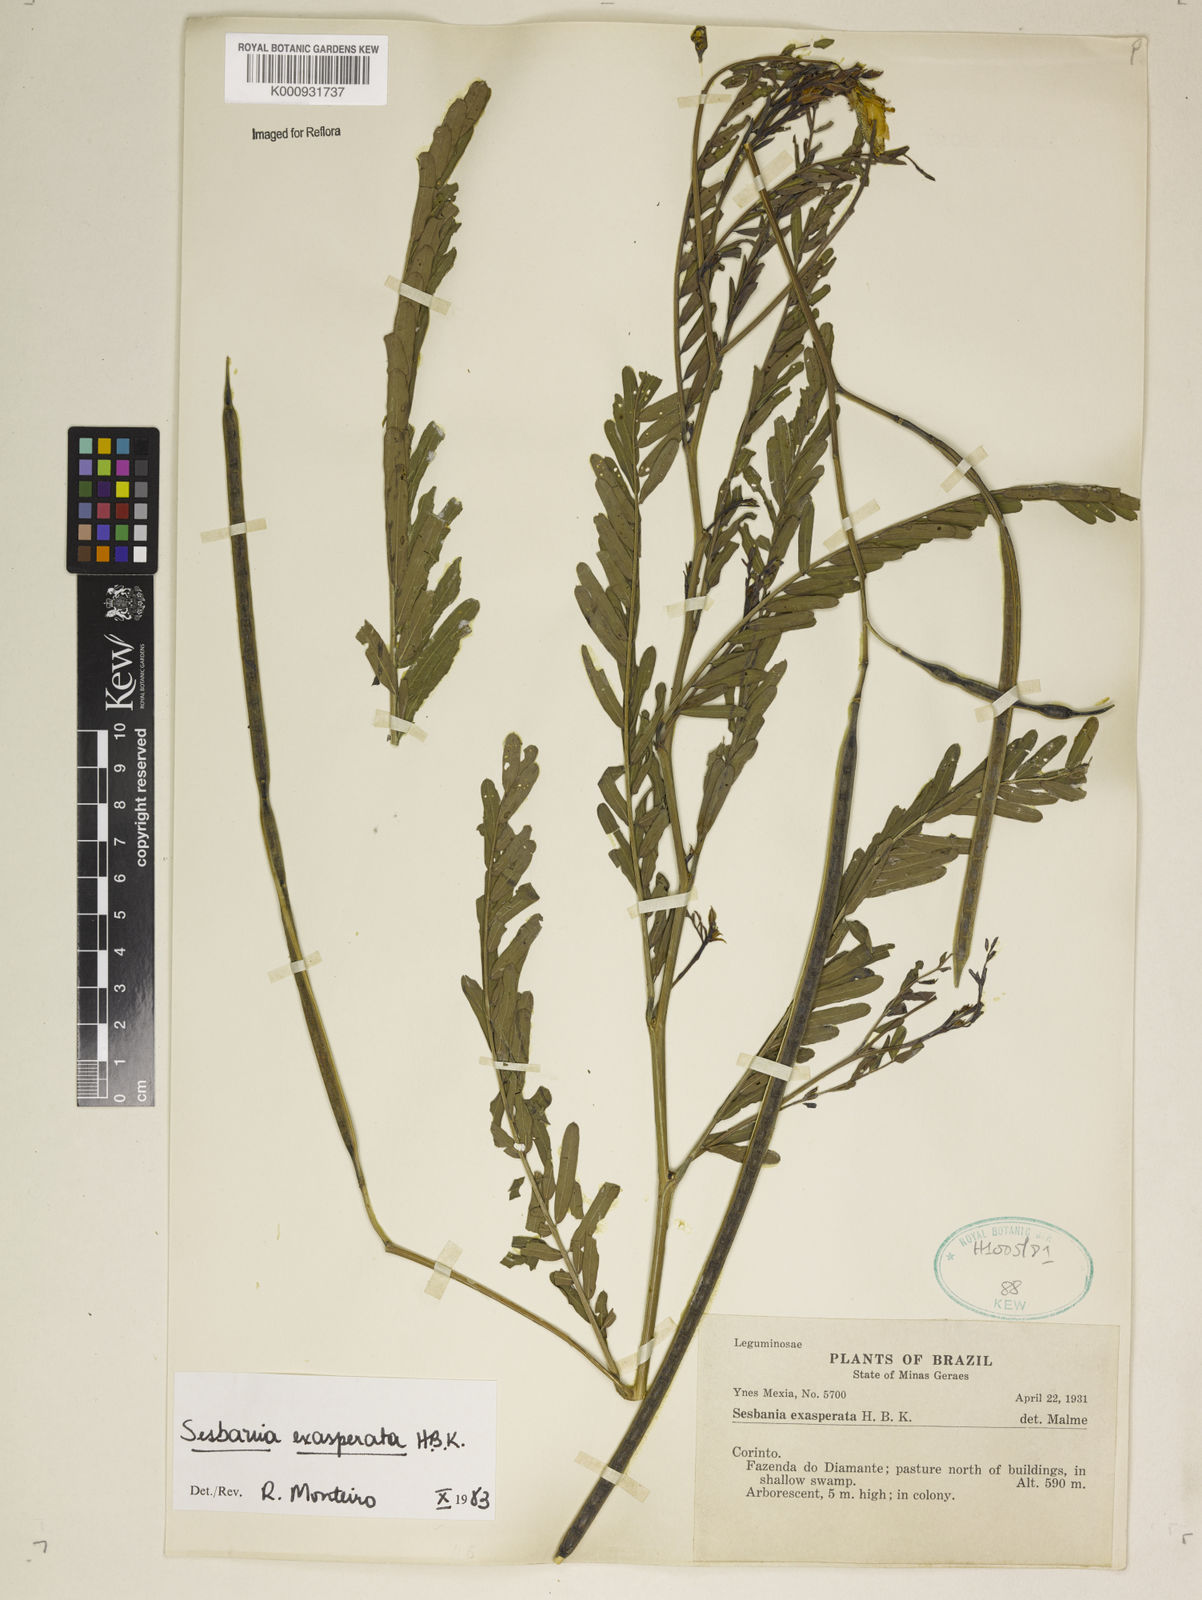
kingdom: Plantae
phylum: Tracheophyta
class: Magnoliopsida
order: Fabales
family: Fabaceae
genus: Sesbania
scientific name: Sesbania exasperata
